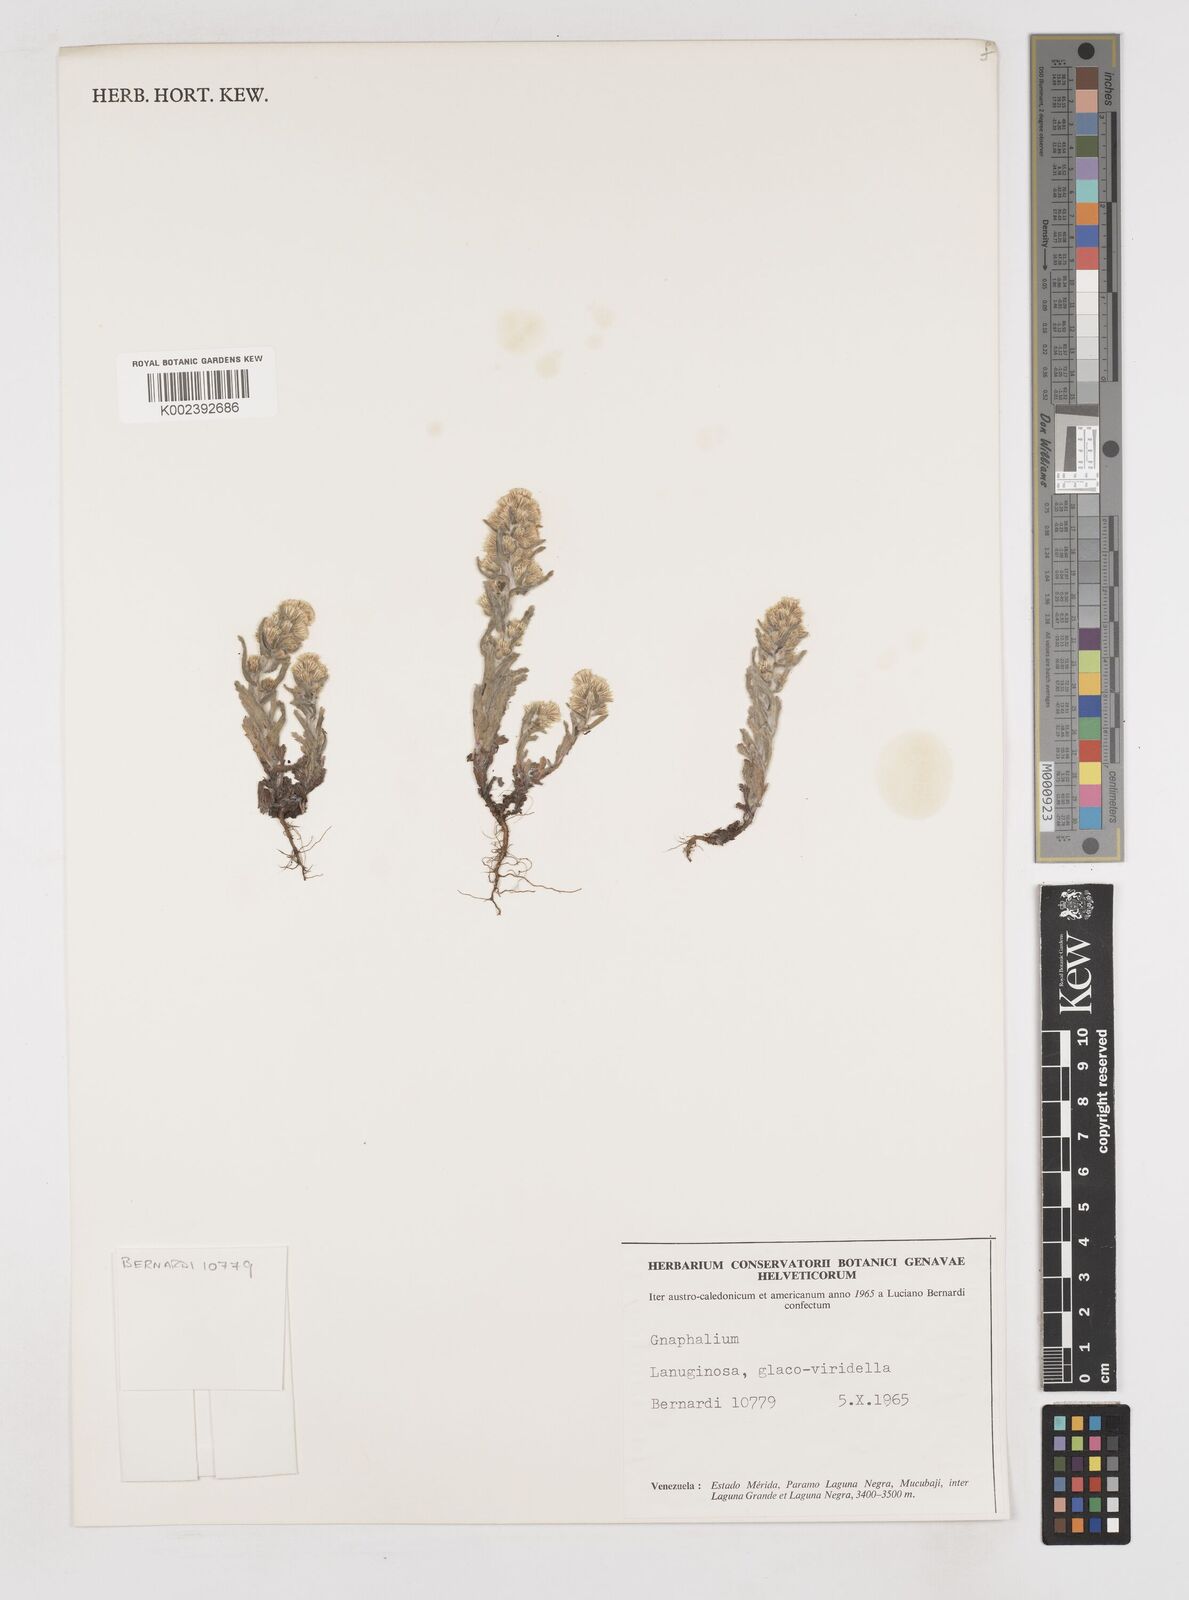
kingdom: Plantae
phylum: Tracheophyta
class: Magnoliopsida
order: Asterales
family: Asteraceae
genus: Gnaphalium
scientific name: Gnaphalium
